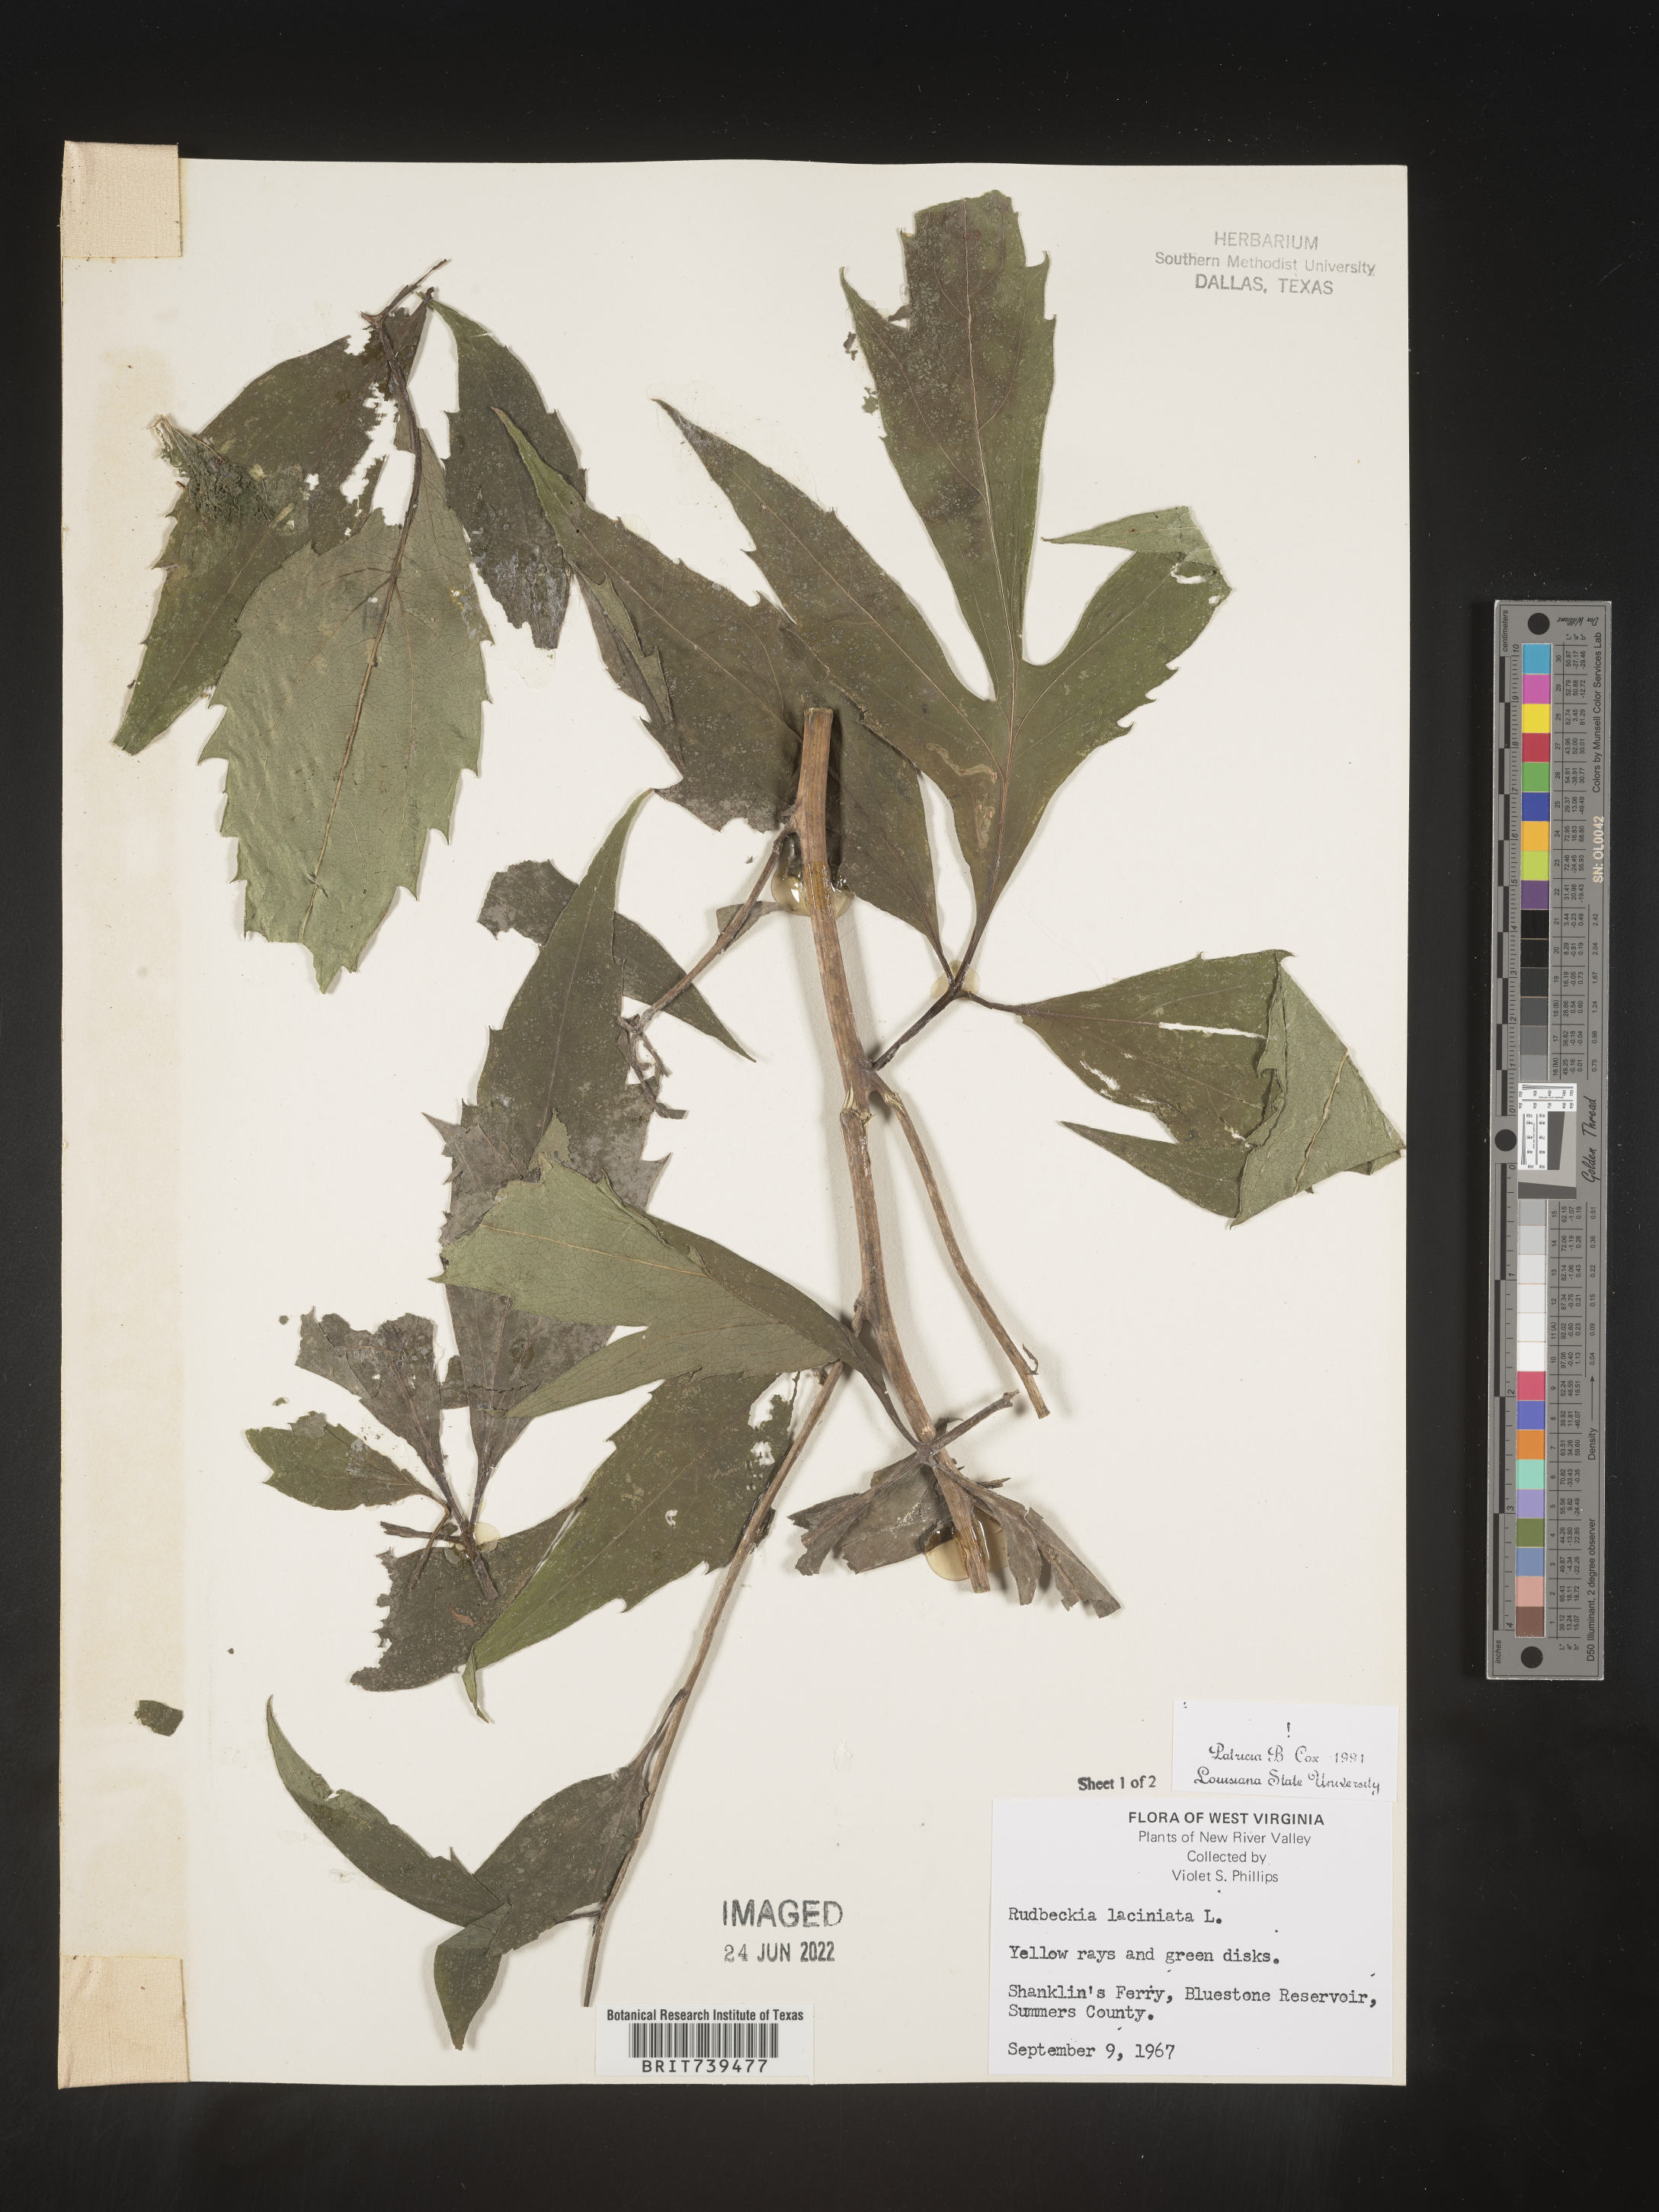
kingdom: Plantae
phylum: Tracheophyta
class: Magnoliopsida
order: Asterales
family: Asteraceae
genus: Rudbeckia
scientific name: Rudbeckia laciniata
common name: Coneflower
